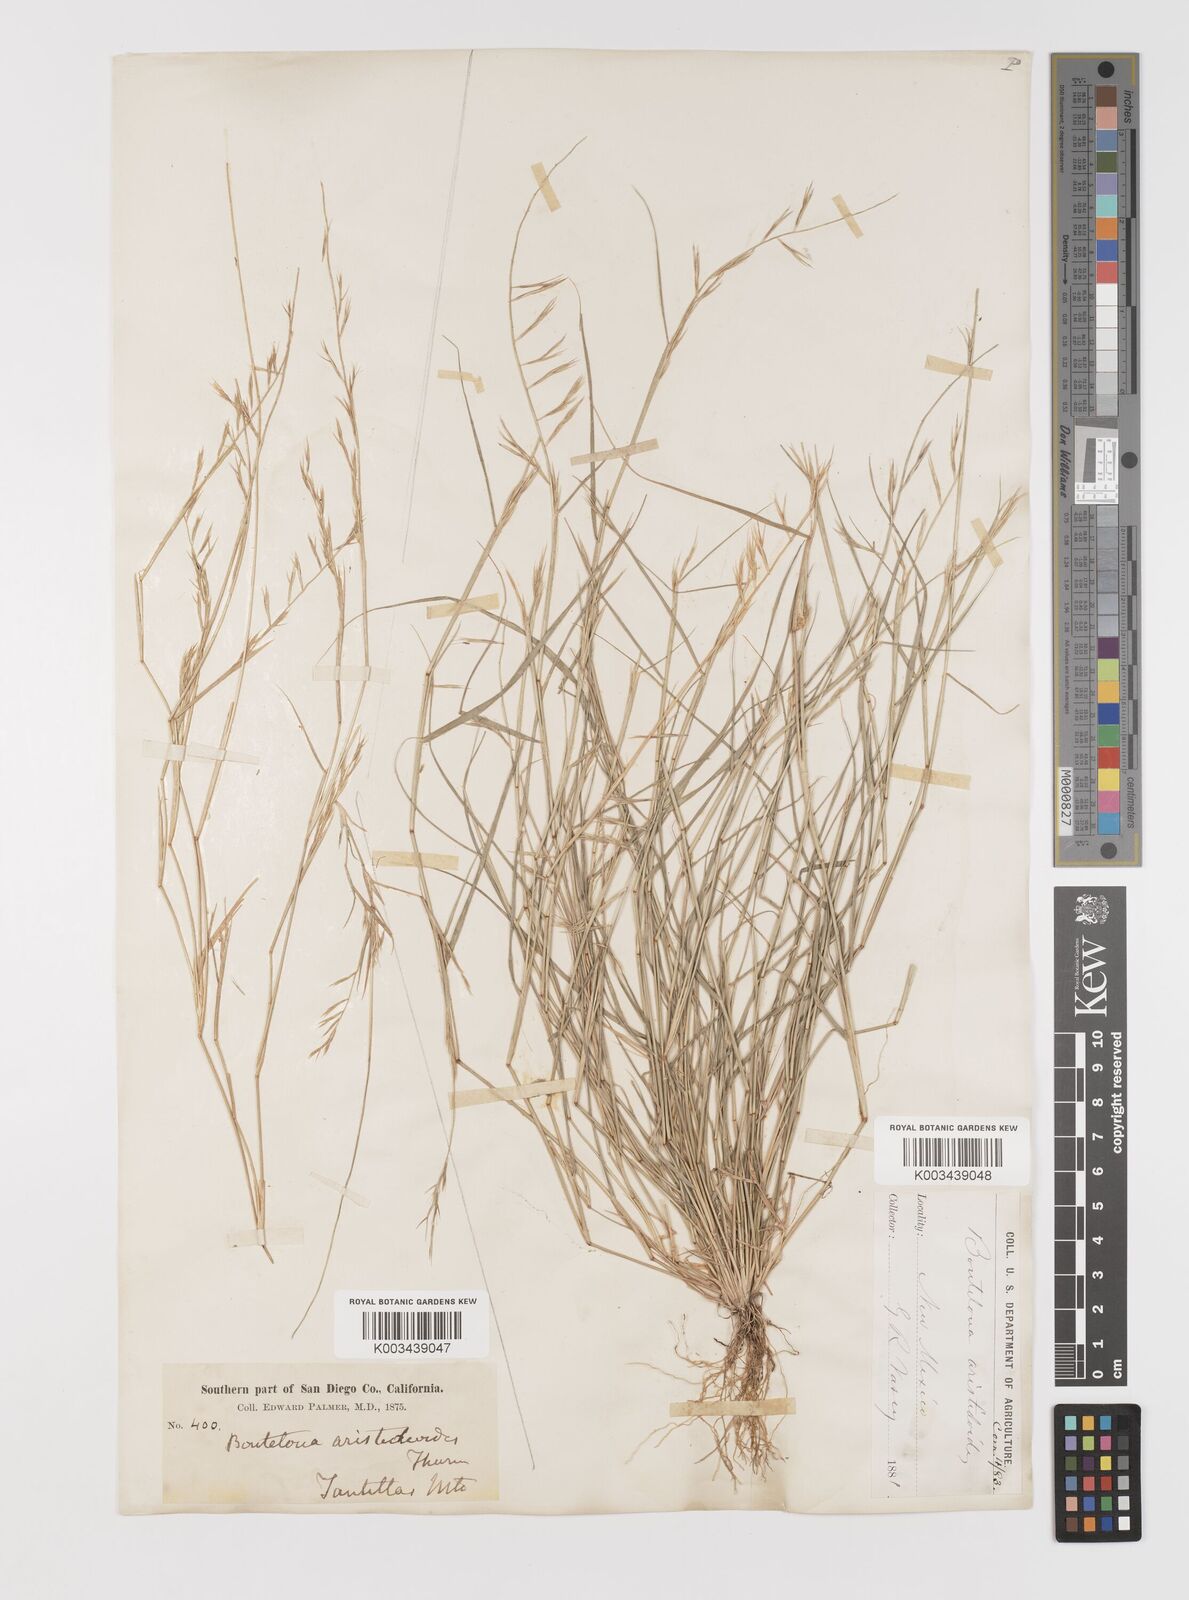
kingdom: Plantae
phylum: Tracheophyta
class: Liliopsida
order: Poales
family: Poaceae
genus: Bouteloua
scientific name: Bouteloua aristidoides
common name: Needle grama
